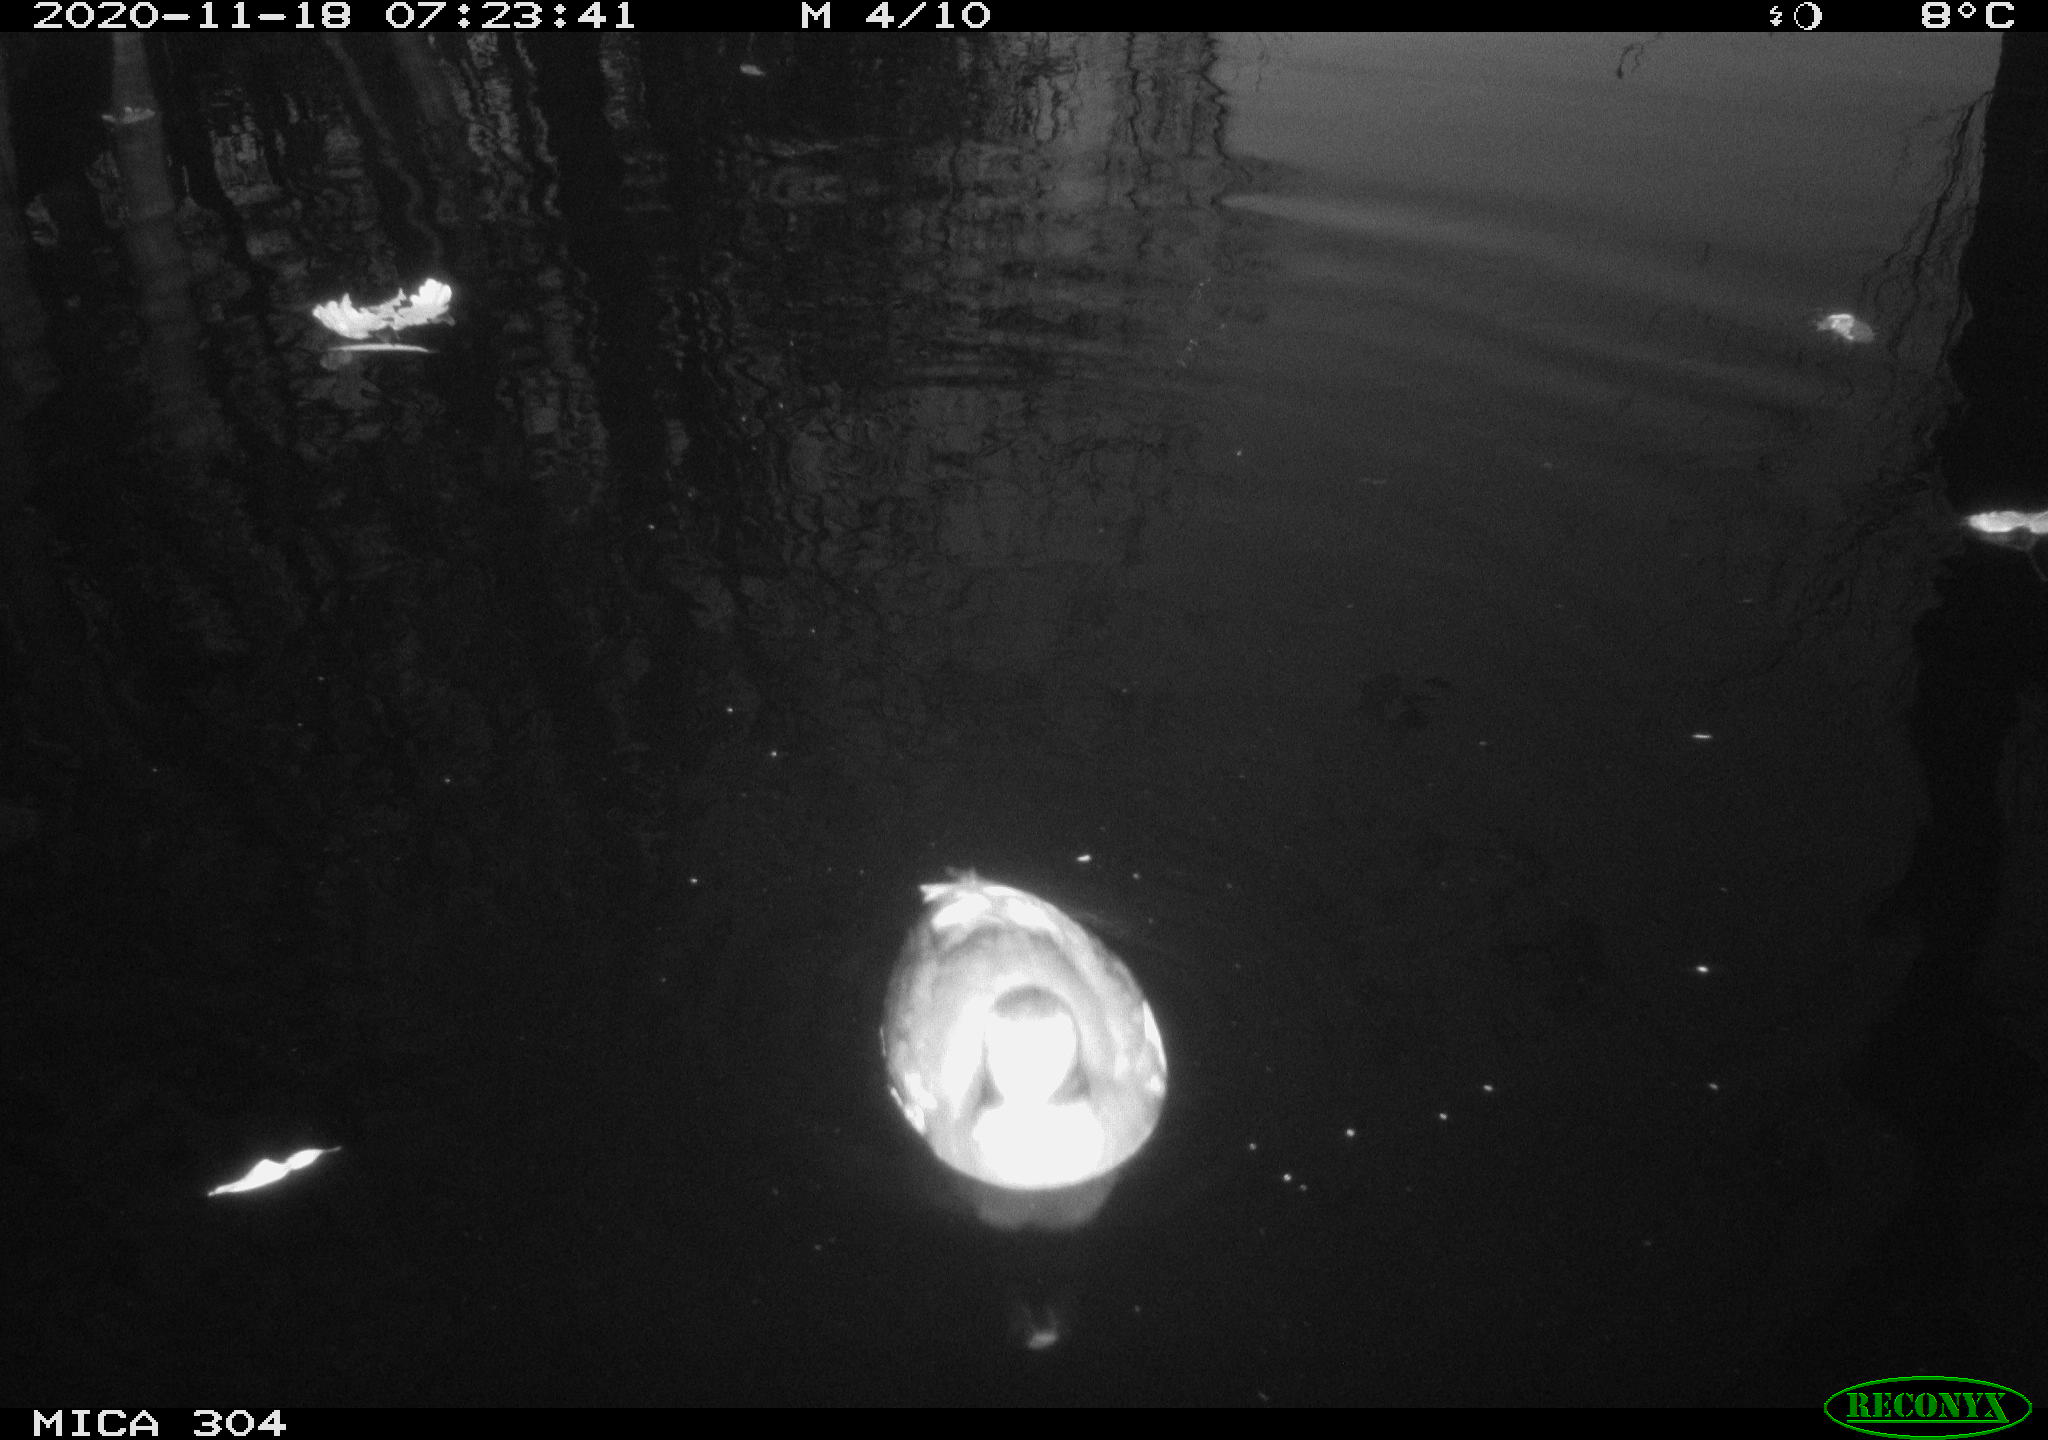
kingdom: Animalia
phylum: Chordata
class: Aves
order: Anseriformes
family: Anatidae
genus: Anas
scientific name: Anas platyrhynchos
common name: Mallard
